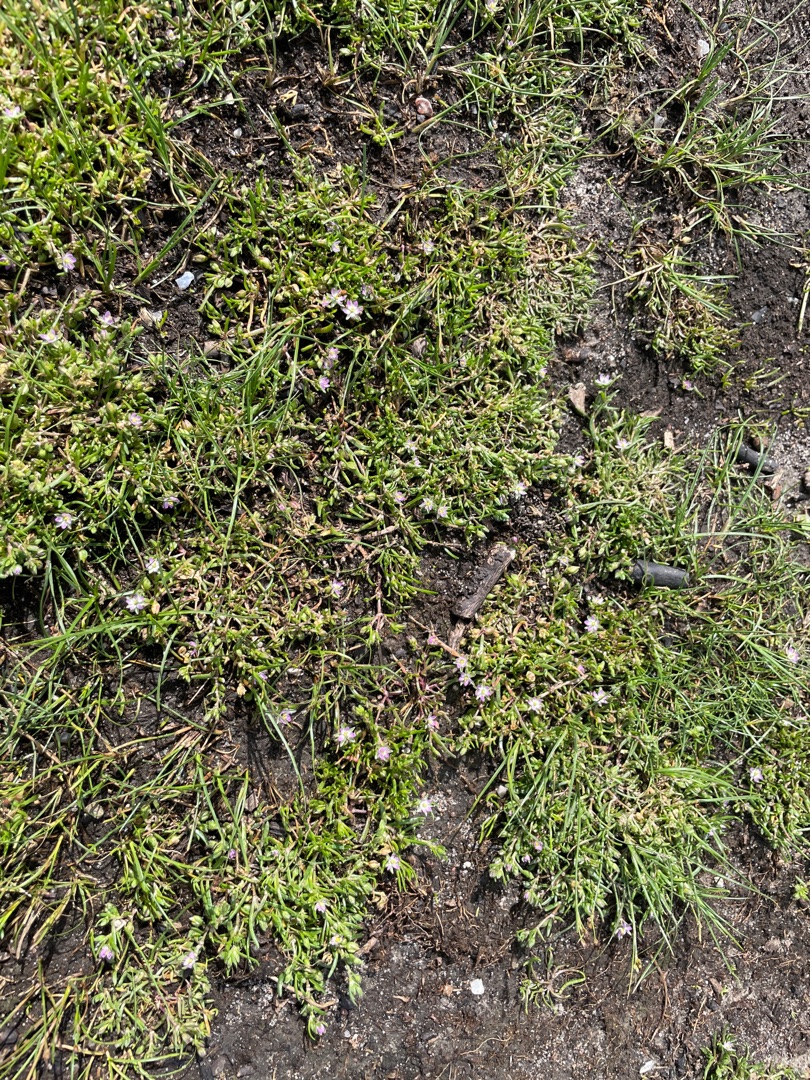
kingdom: Plantae
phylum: Tracheophyta
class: Magnoliopsida
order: Caryophyllales
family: Caryophyllaceae
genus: Spergularia
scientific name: Spergularia
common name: Hindeknæslægten
